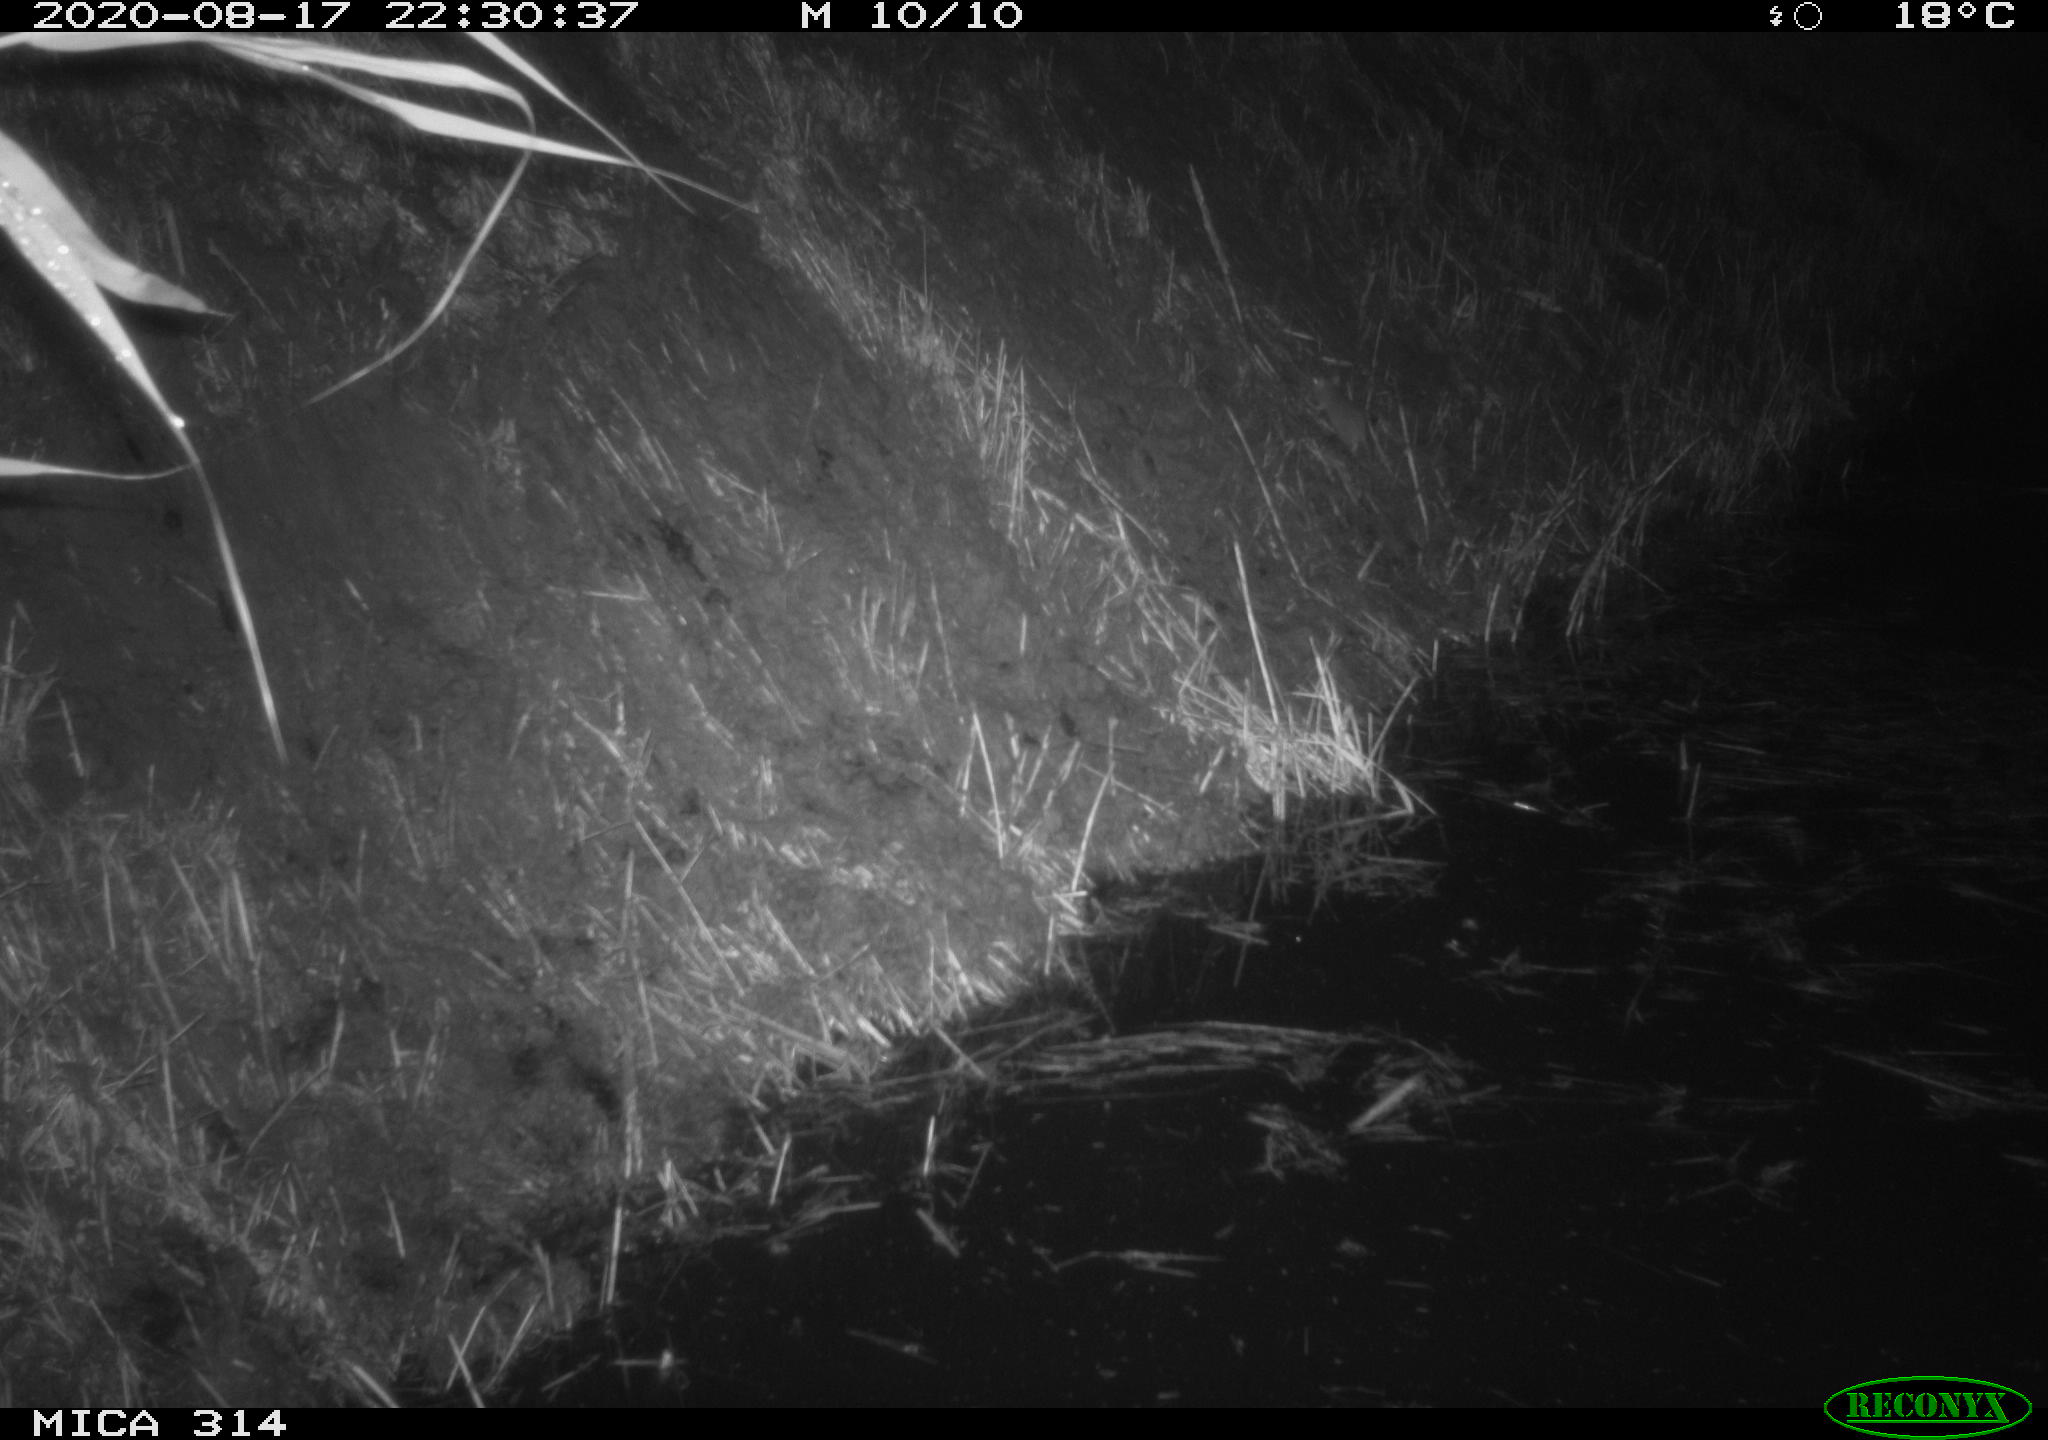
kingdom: Animalia
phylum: Chordata
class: Mammalia
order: Rodentia
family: Muridae
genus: Rattus
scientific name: Rattus norvegicus
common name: Brown rat
